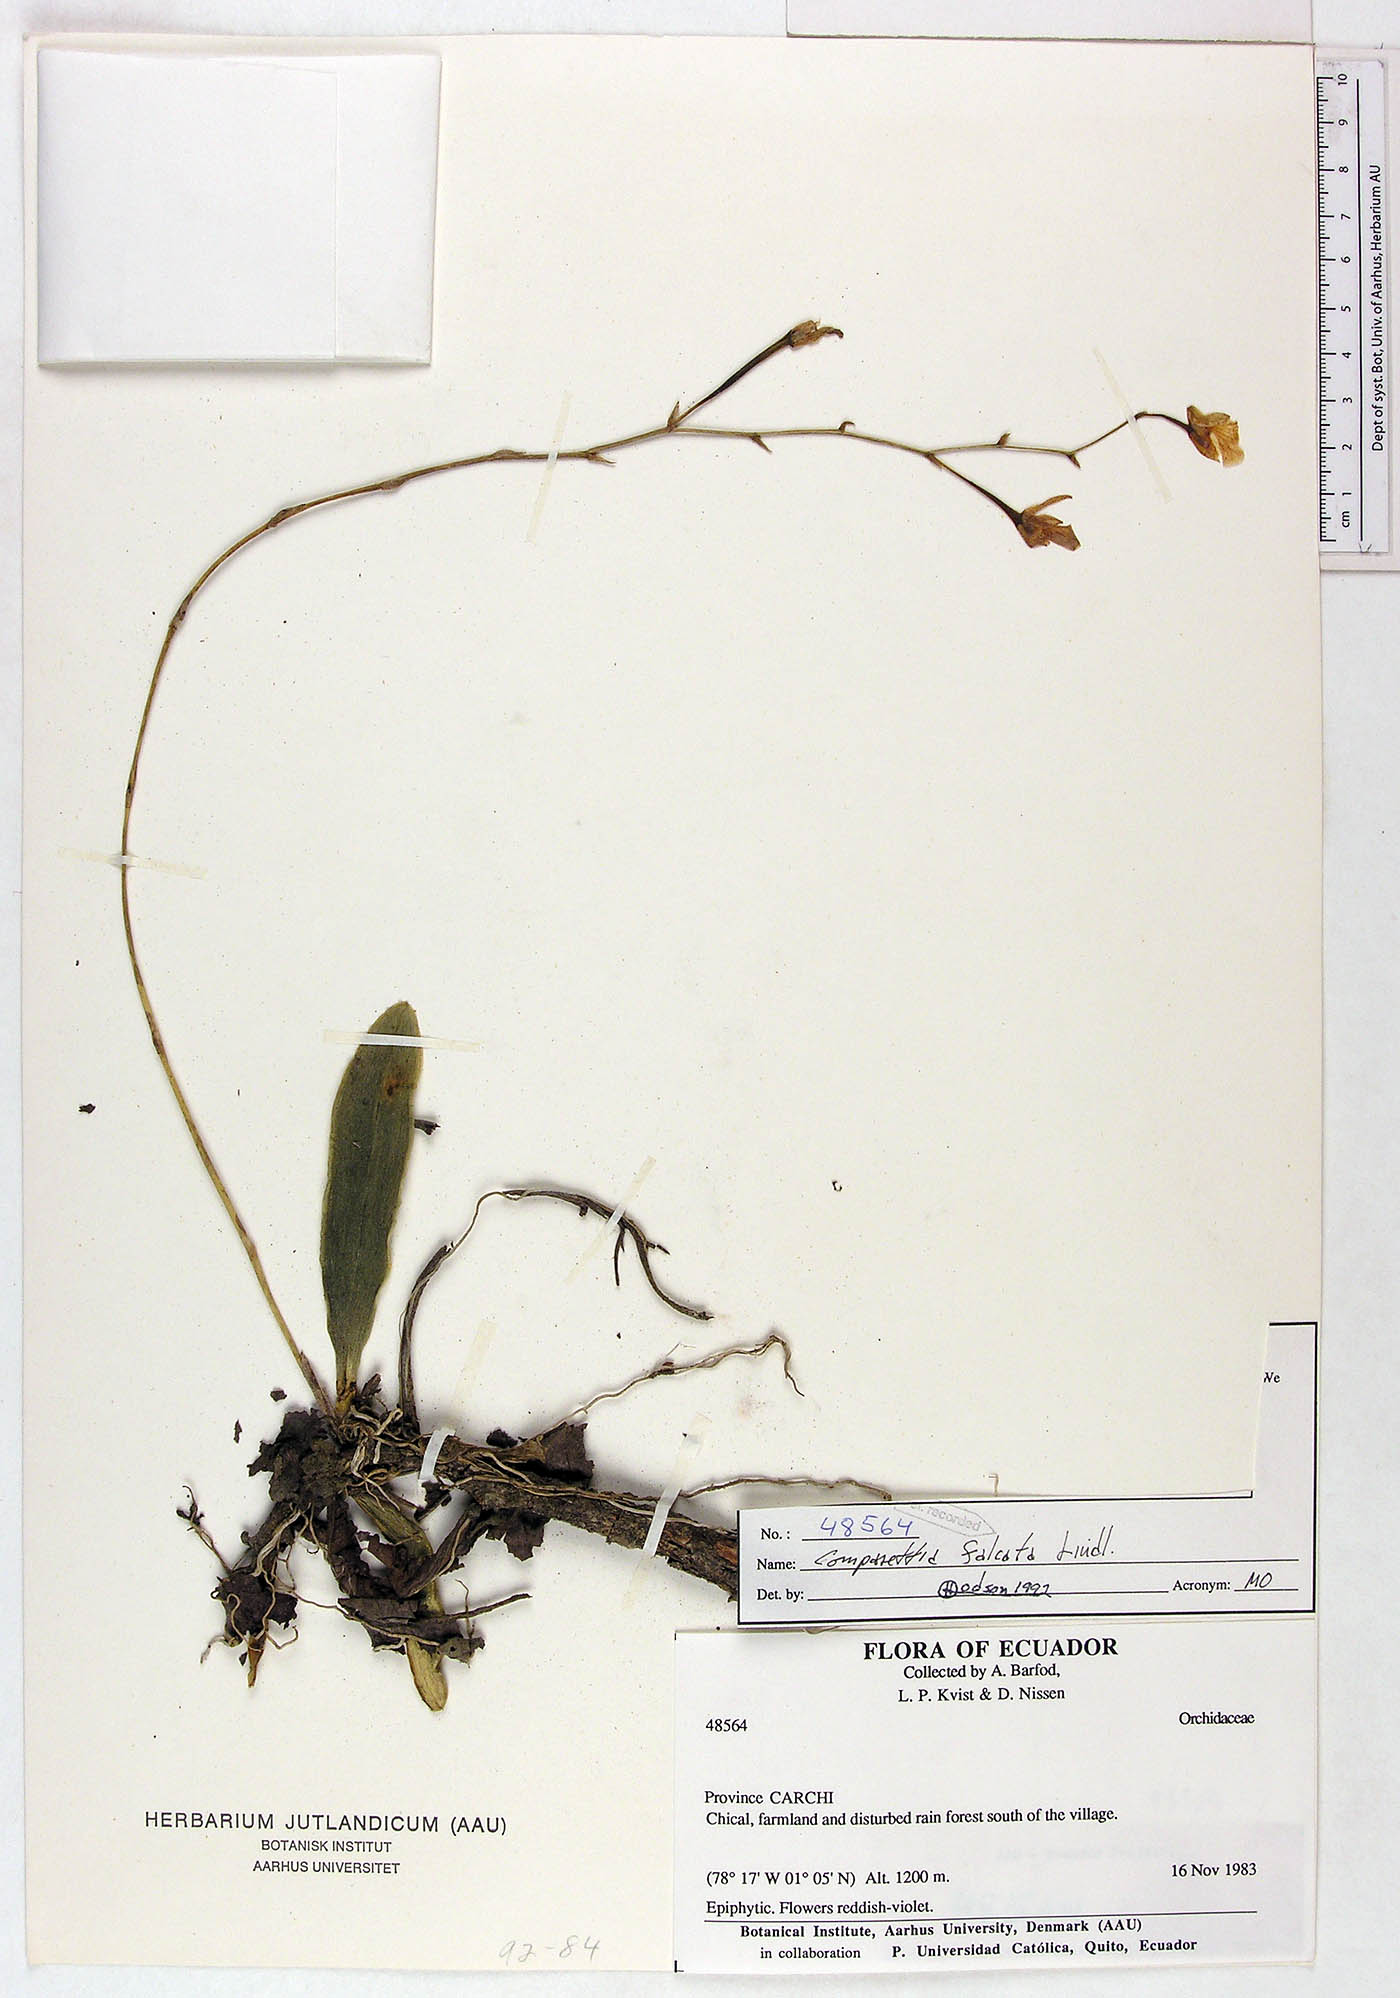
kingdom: Plantae
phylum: Tracheophyta
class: Liliopsida
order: Asparagales
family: Orchidaceae
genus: Comparettia
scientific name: Comparettia falcata
